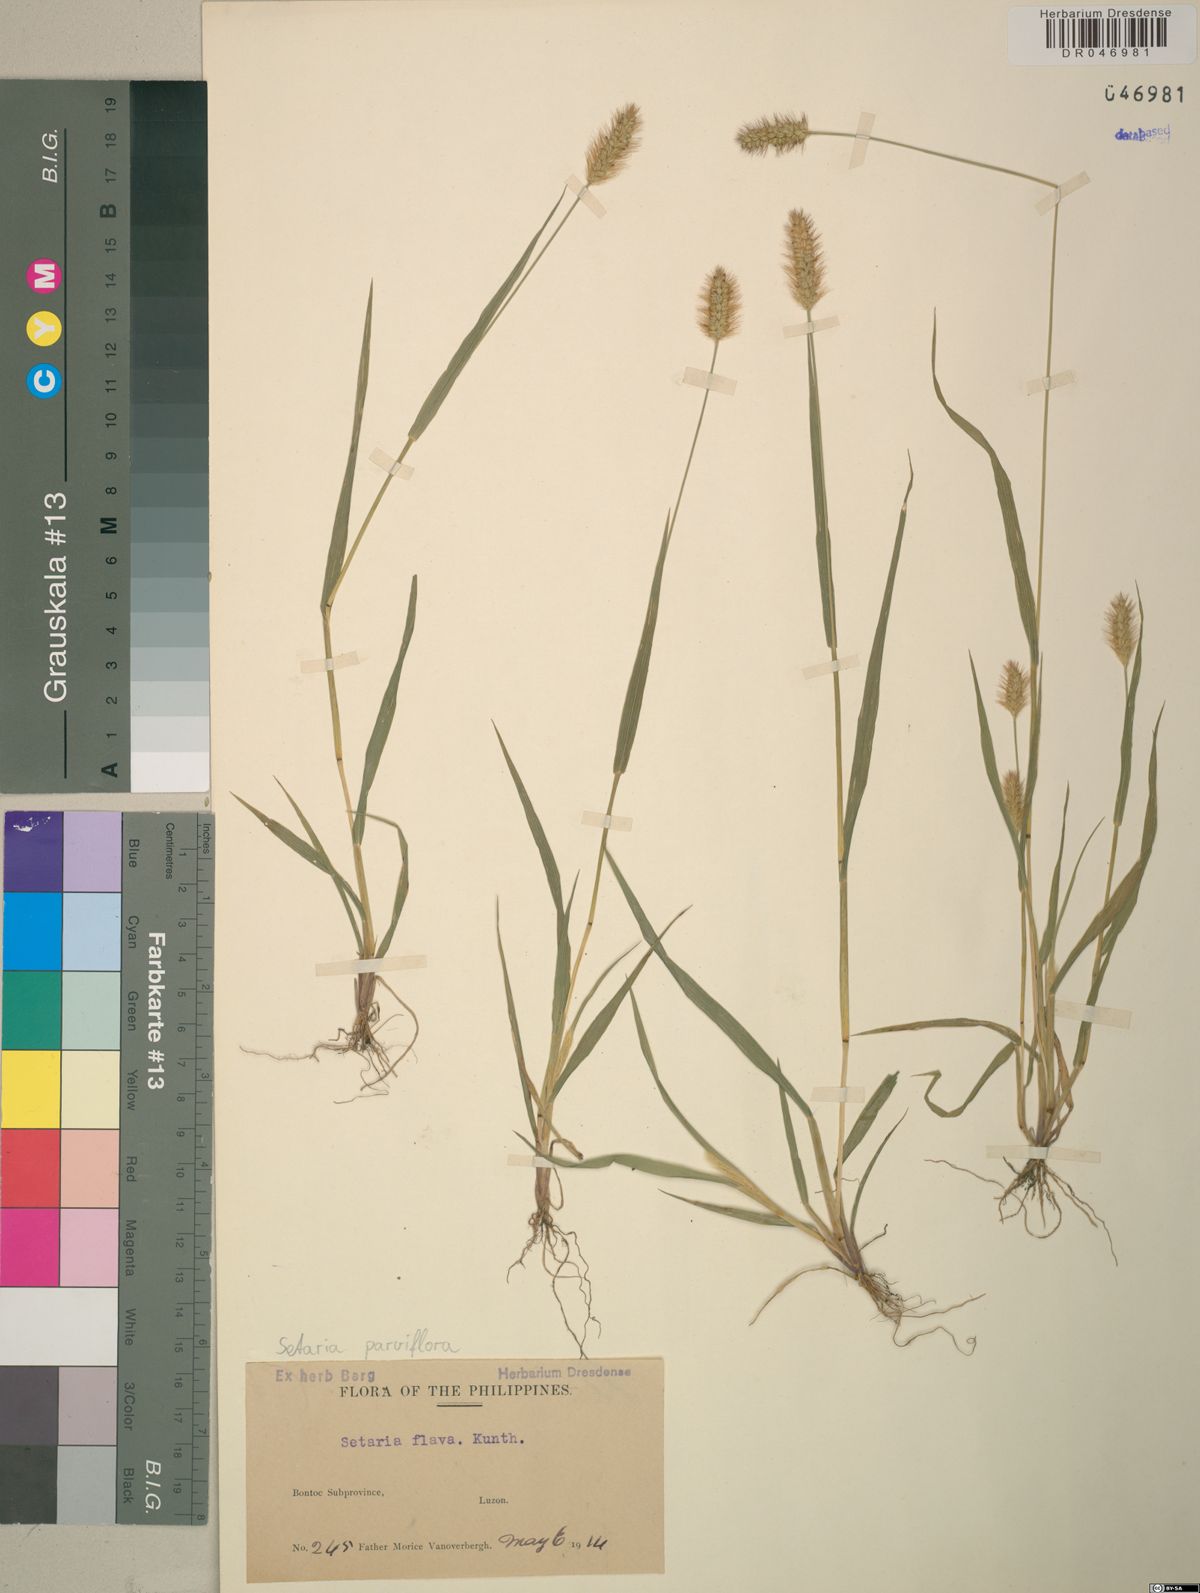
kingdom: Plantae
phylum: Tracheophyta
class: Liliopsida
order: Poales
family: Poaceae
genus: Setaria
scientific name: Setaria parviflora
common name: Knotroot bristle-grass
